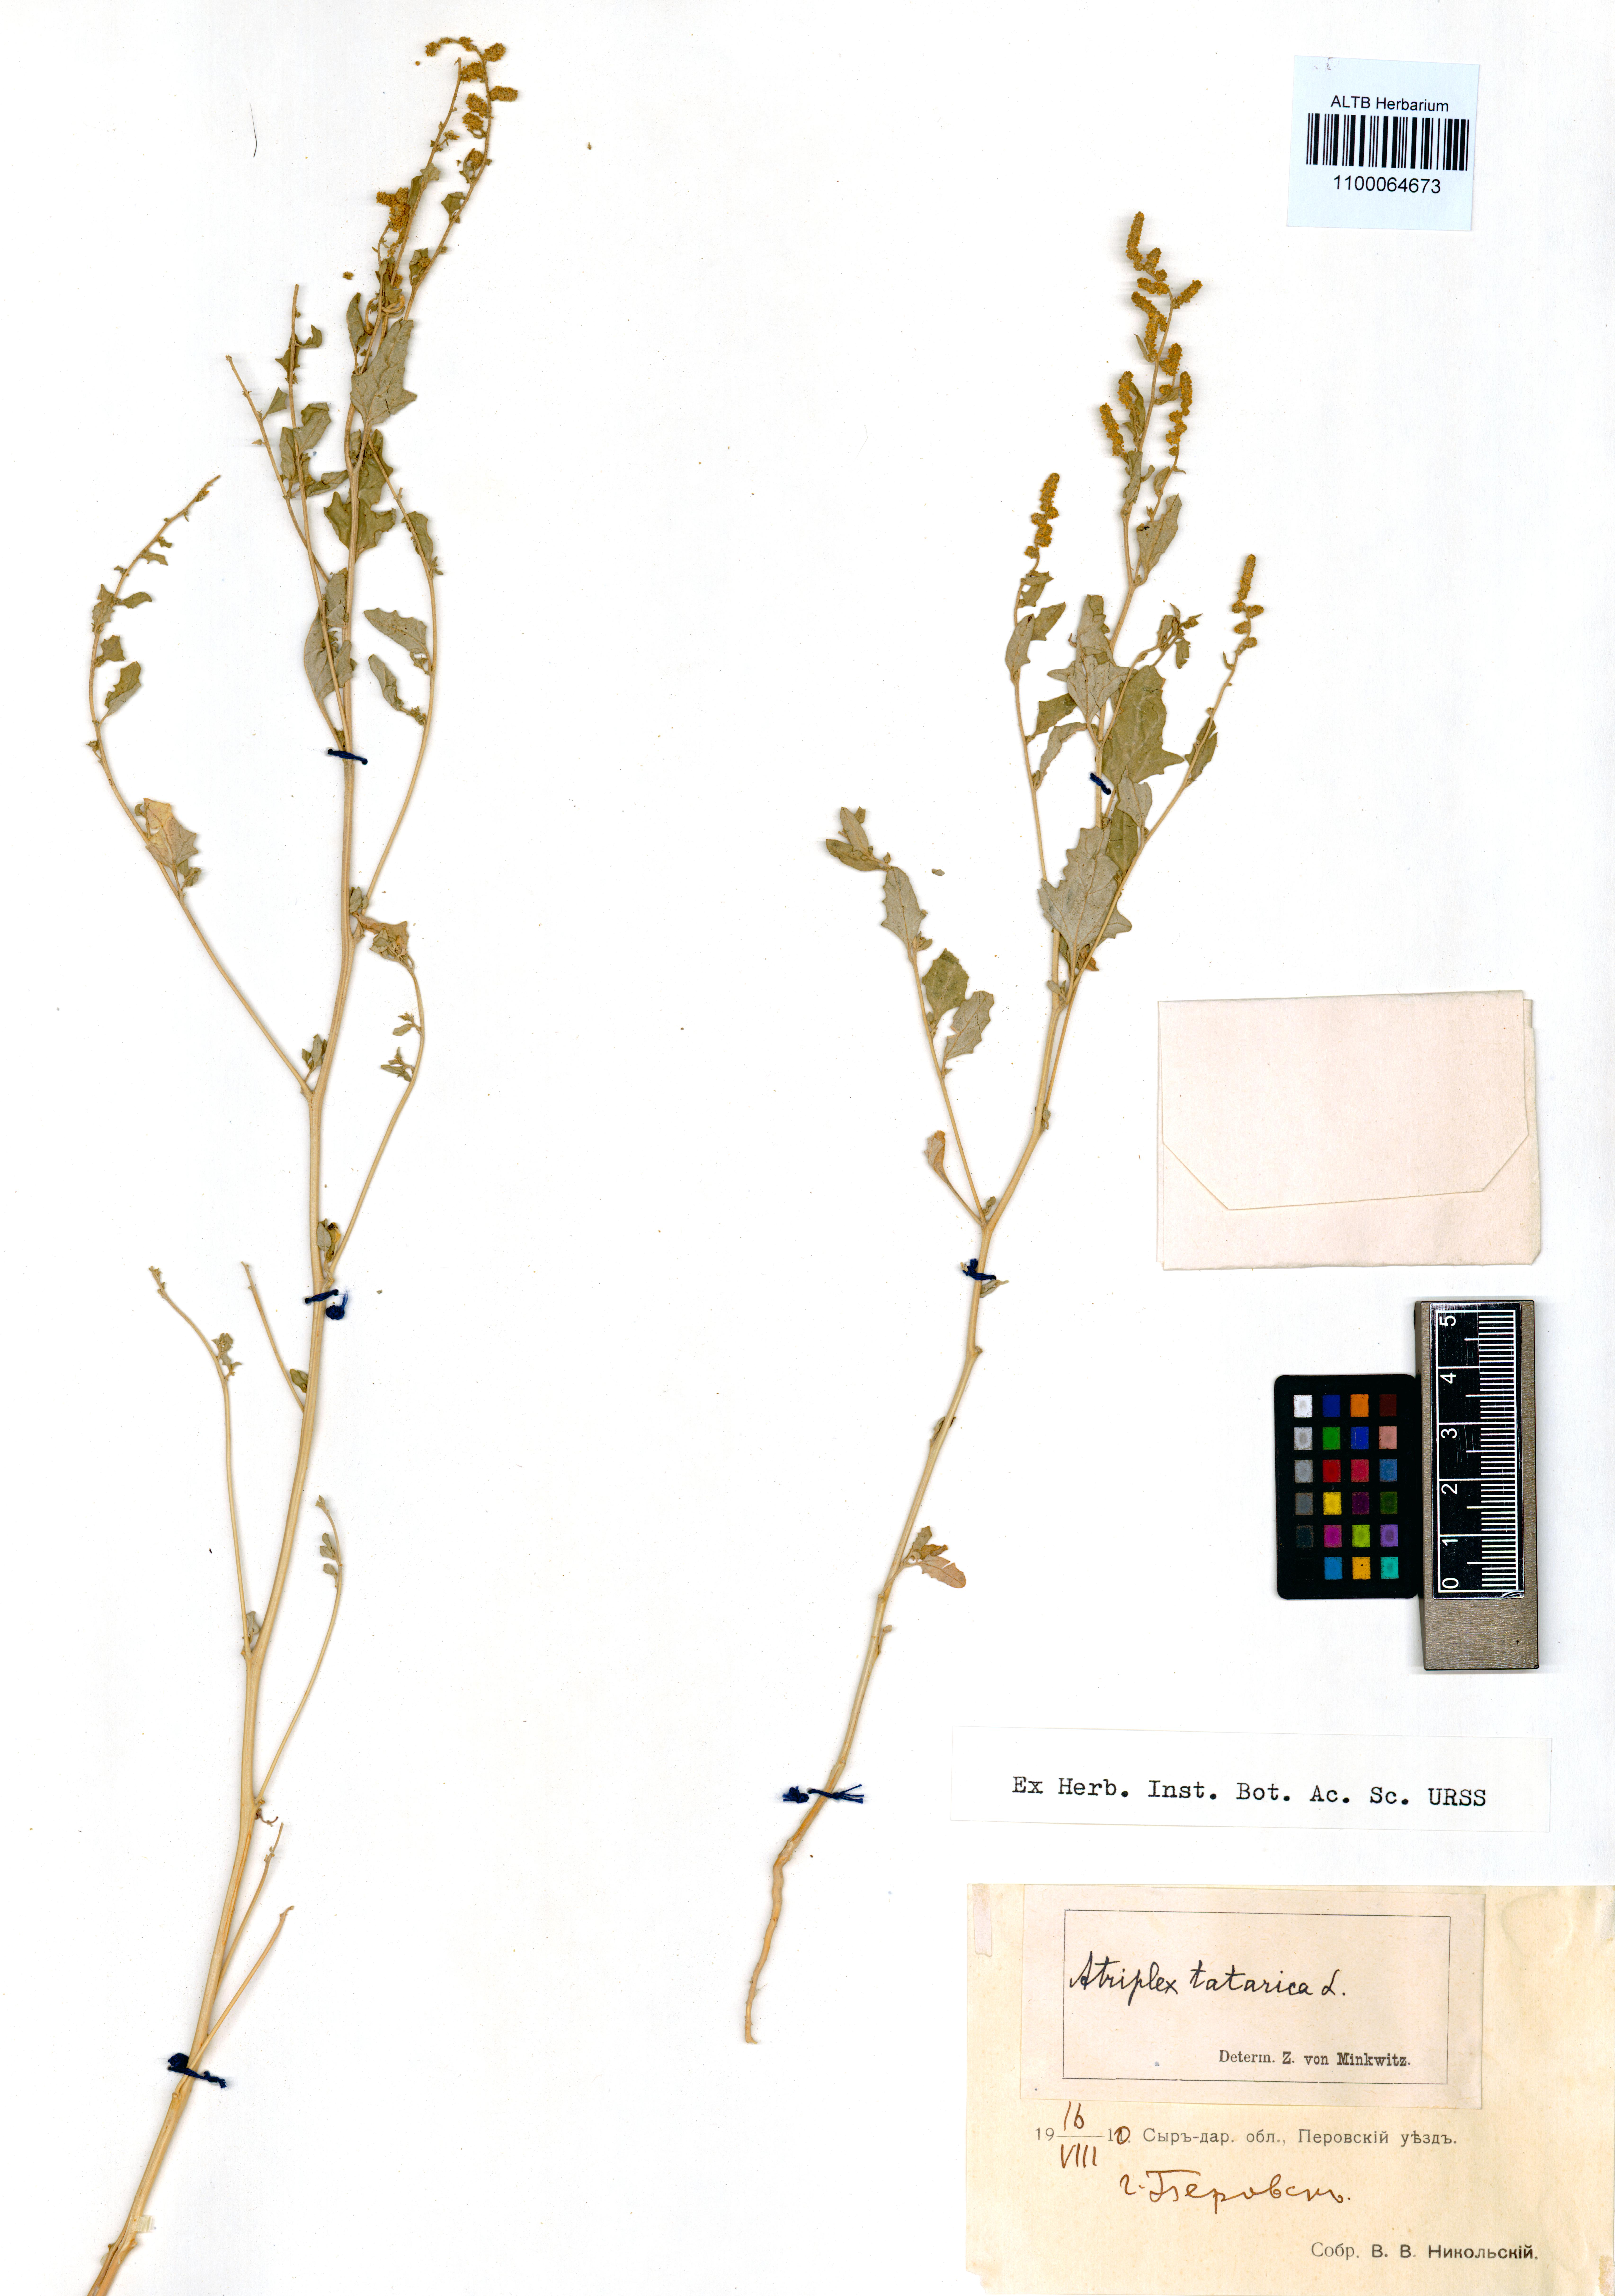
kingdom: Plantae
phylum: Tracheophyta
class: Magnoliopsida
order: Caryophyllales
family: Amaranthaceae
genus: Atriplex
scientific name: Atriplex tatarica
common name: Tatarian orache
